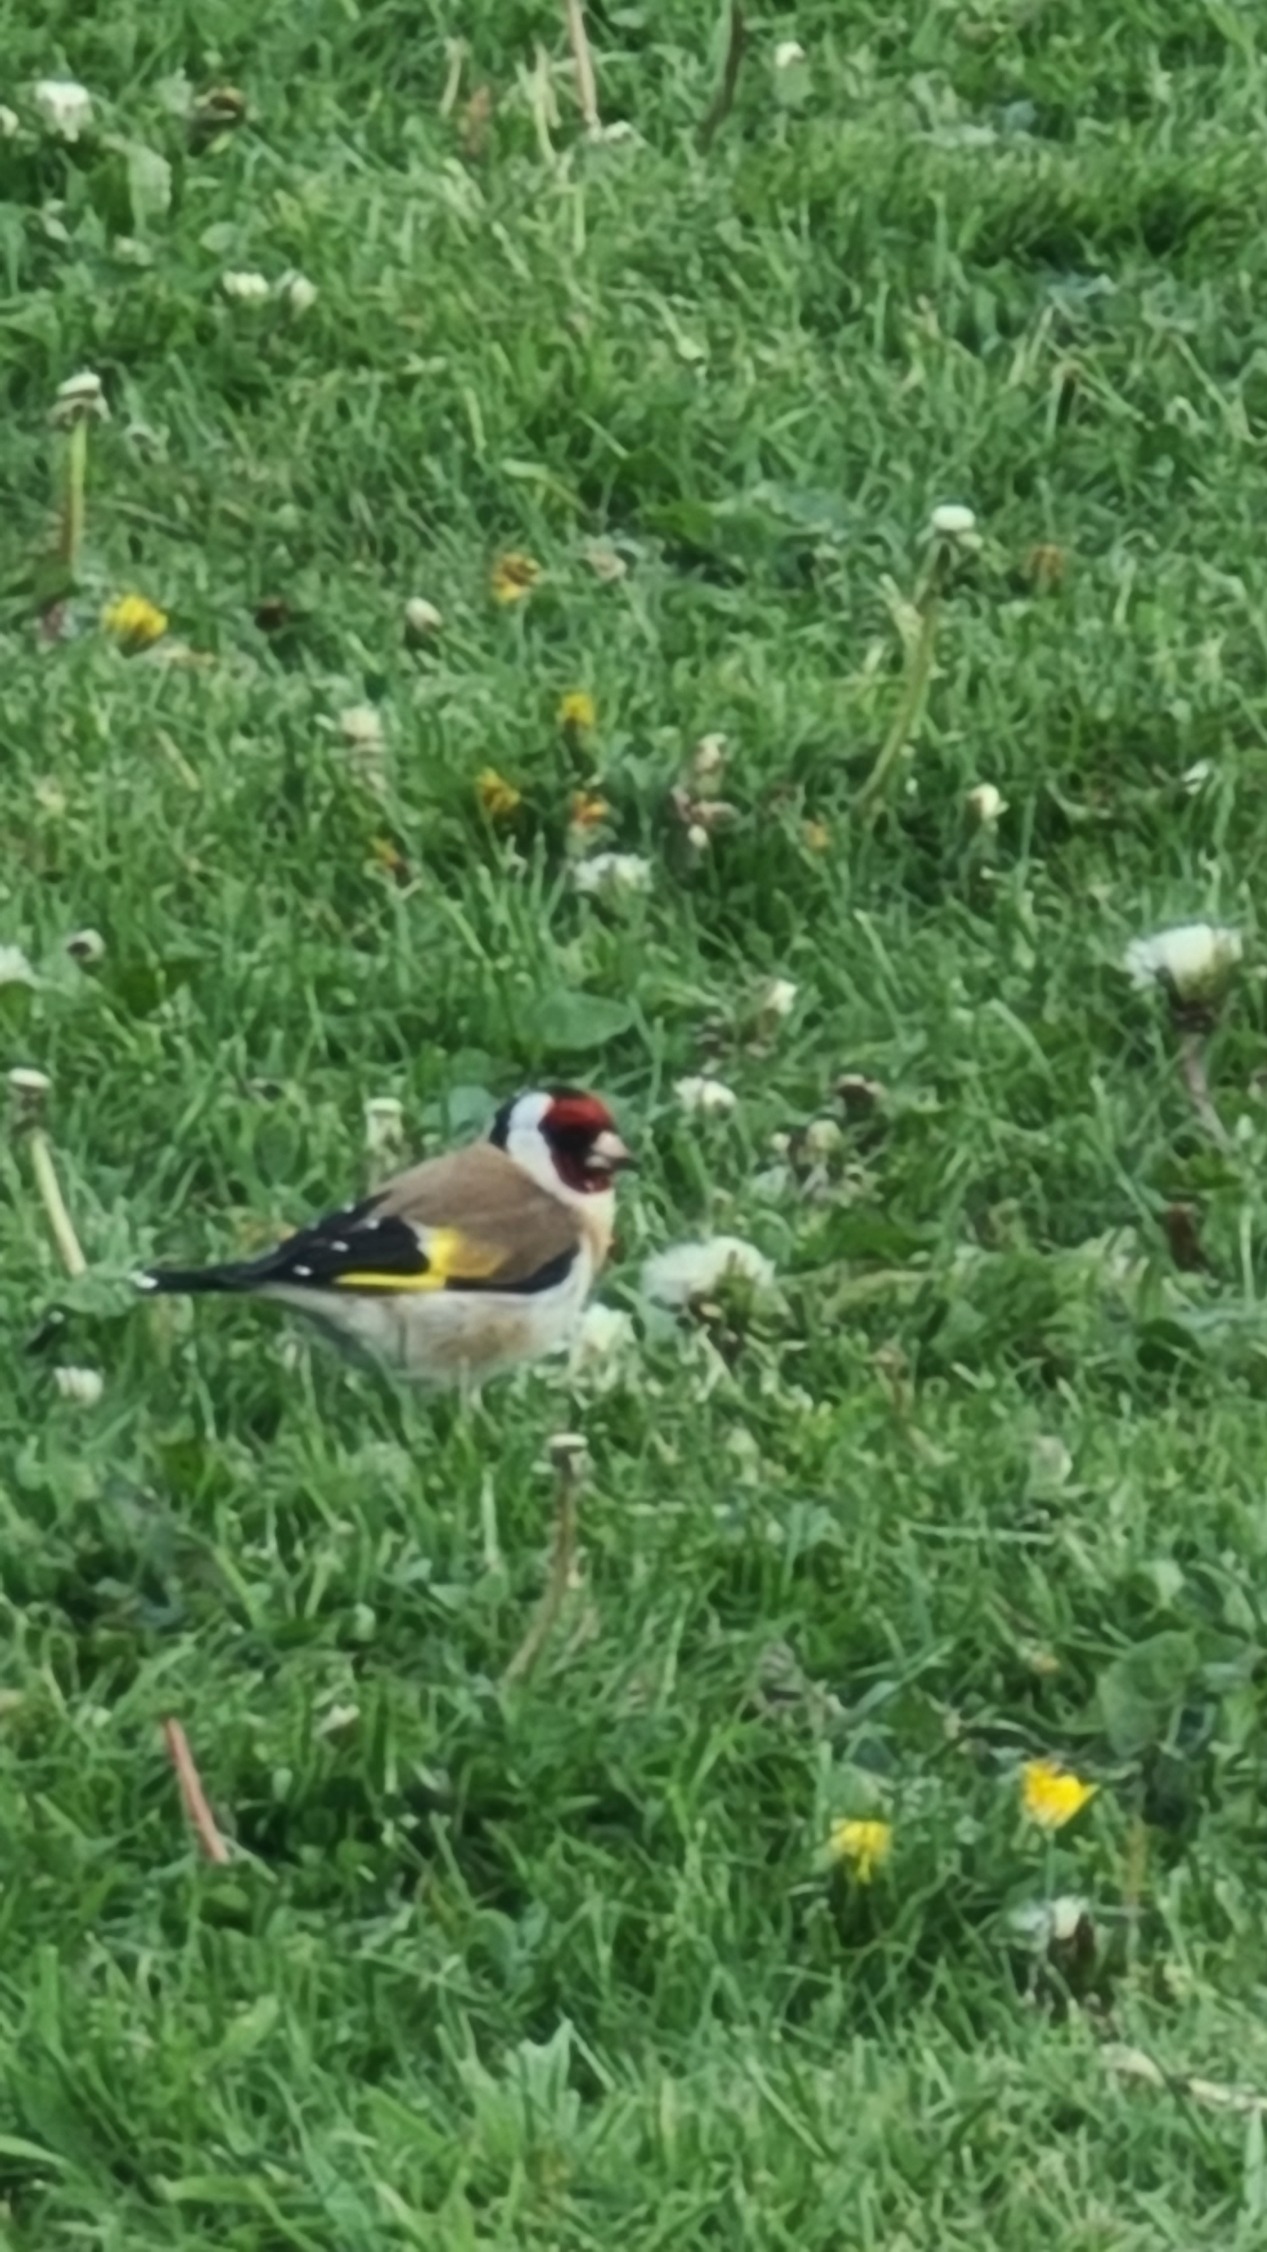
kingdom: Animalia
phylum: Chordata
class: Aves
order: Passeriformes
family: Fringillidae
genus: Carduelis
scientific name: Carduelis carduelis
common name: Stillits
